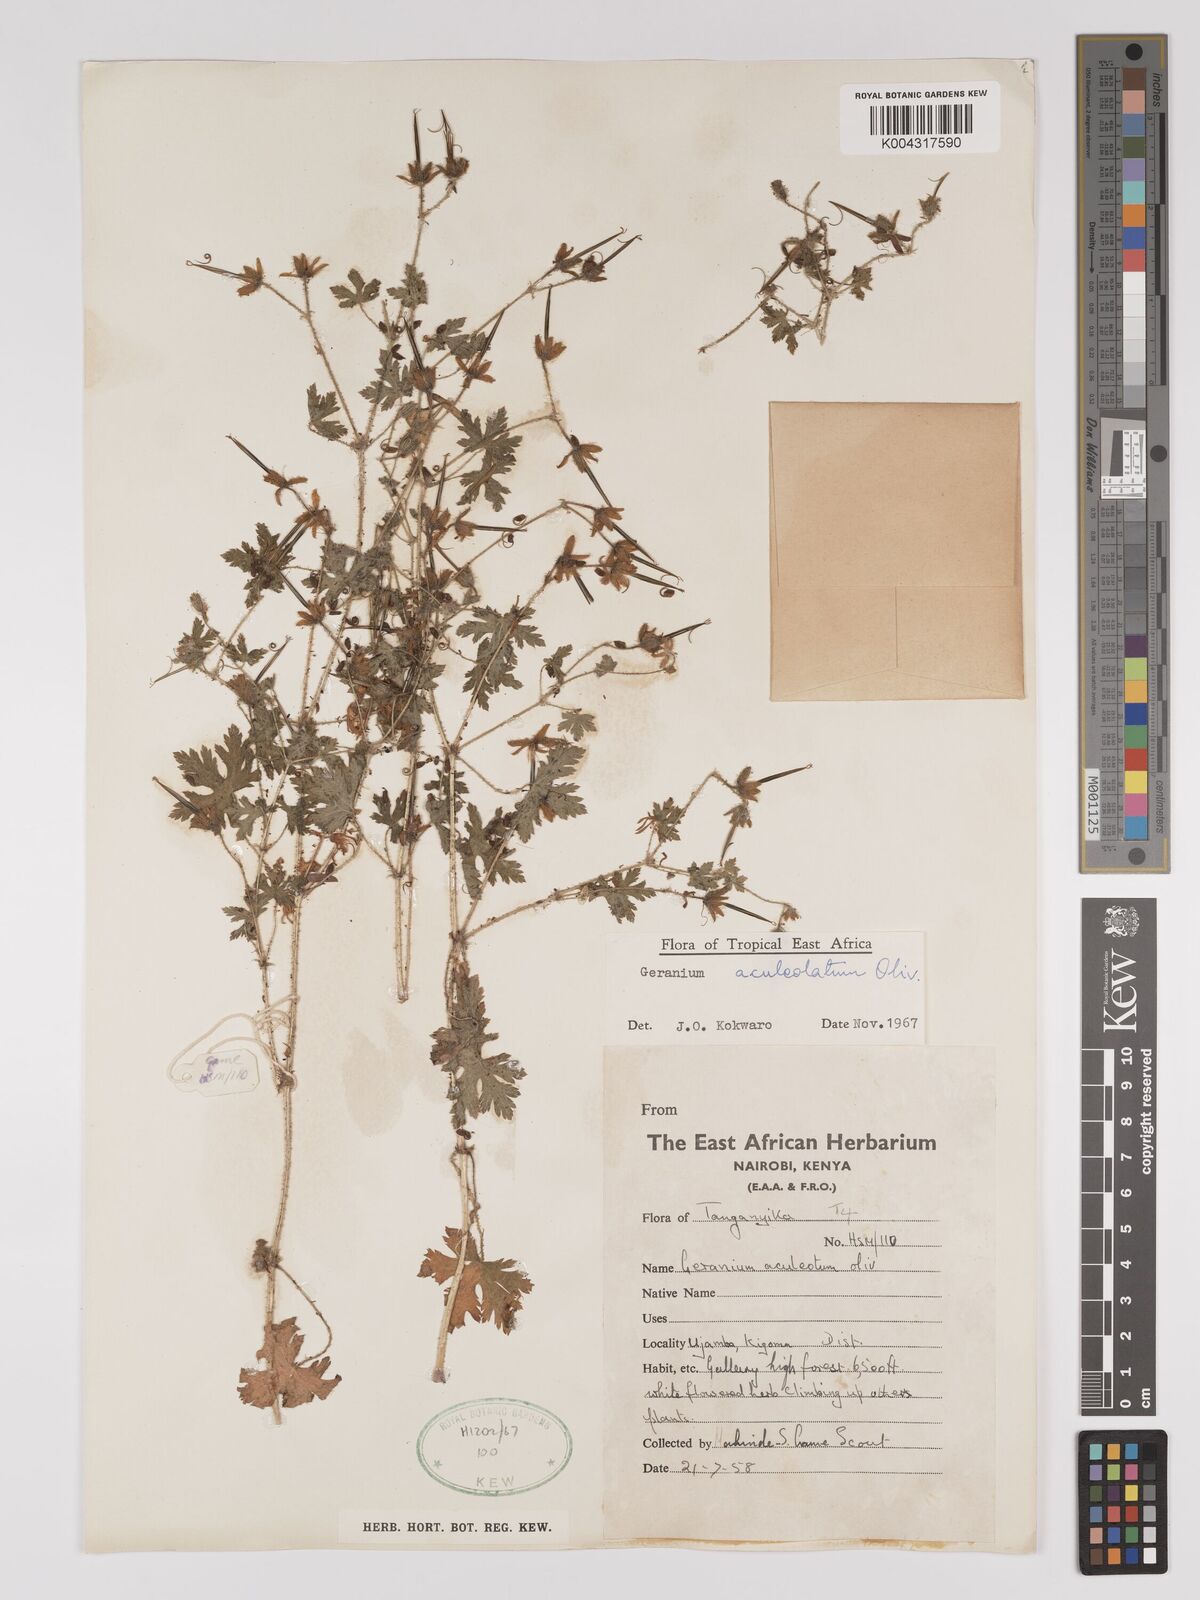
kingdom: Plantae
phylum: Tracheophyta
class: Magnoliopsida
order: Geraniales
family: Geraniaceae
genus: Geranium
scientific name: Geranium aculeolatum
